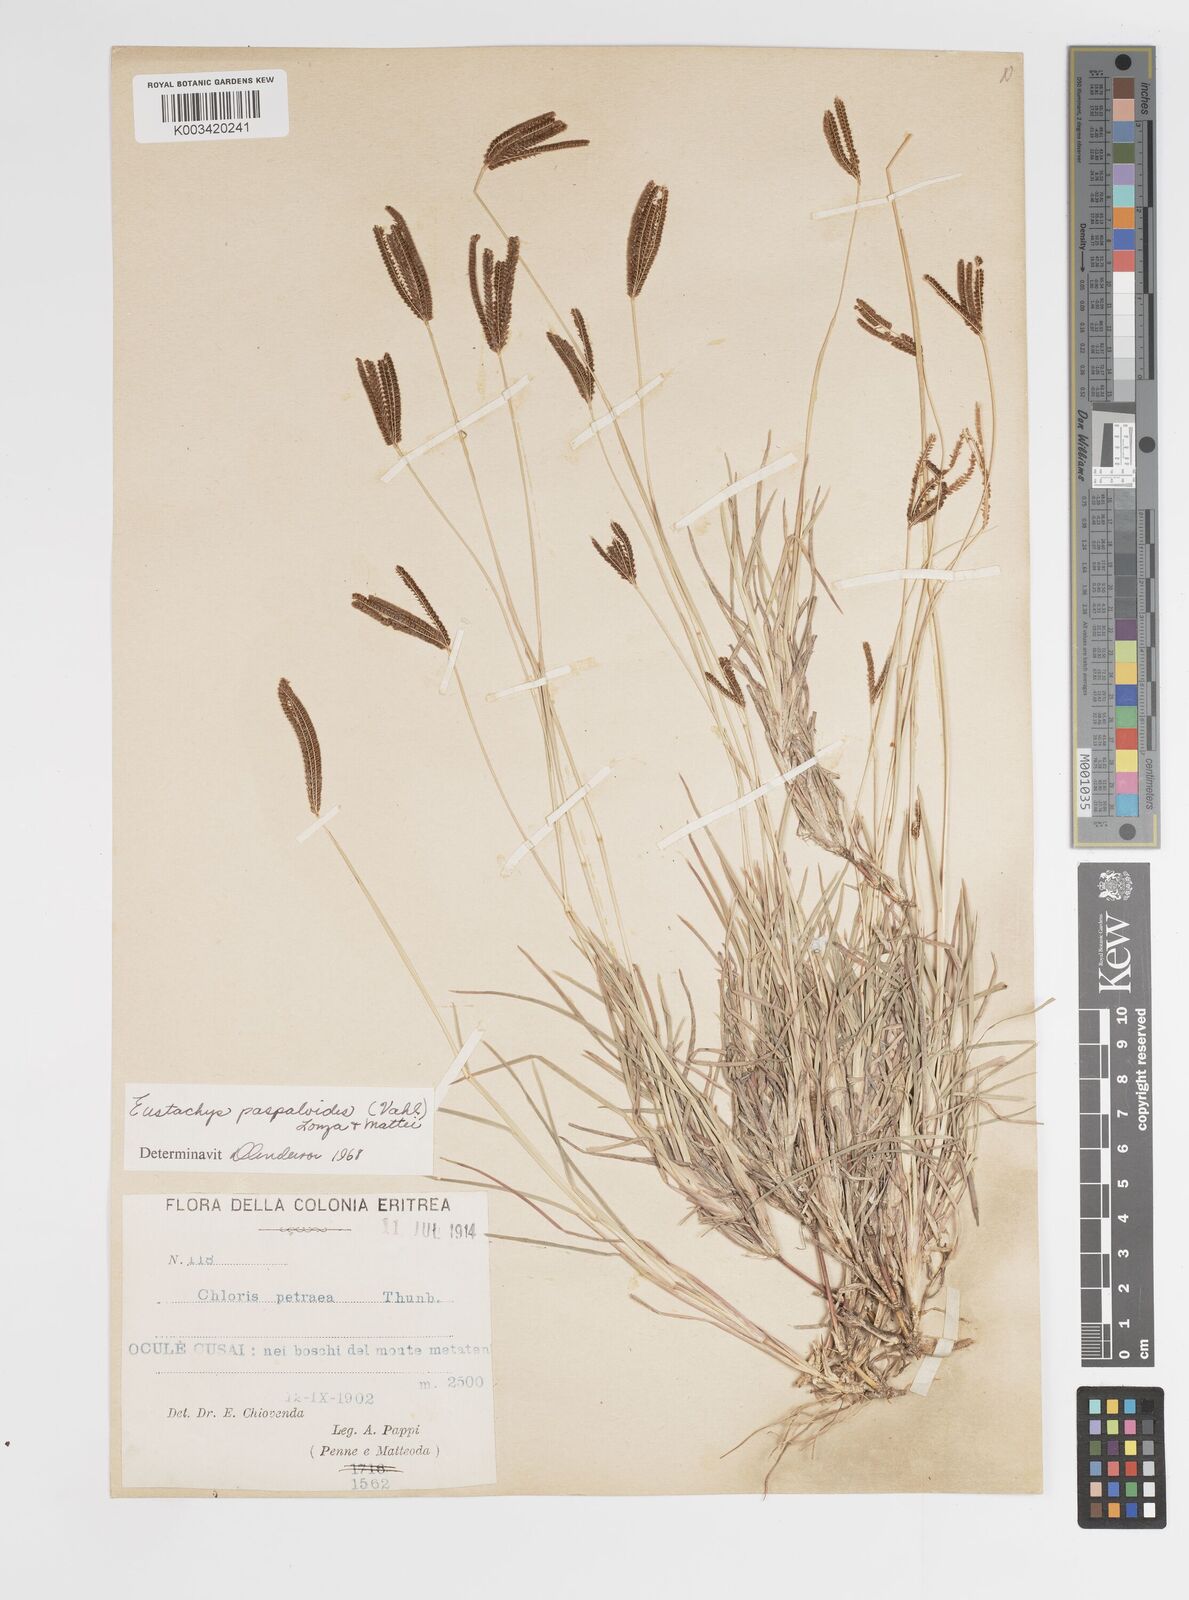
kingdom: Plantae
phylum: Tracheophyta
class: Liliopsida
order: Poales
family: Poaceae
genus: Eustachys
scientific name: Eustachys paspaloides
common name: Caribbean fingergrass
